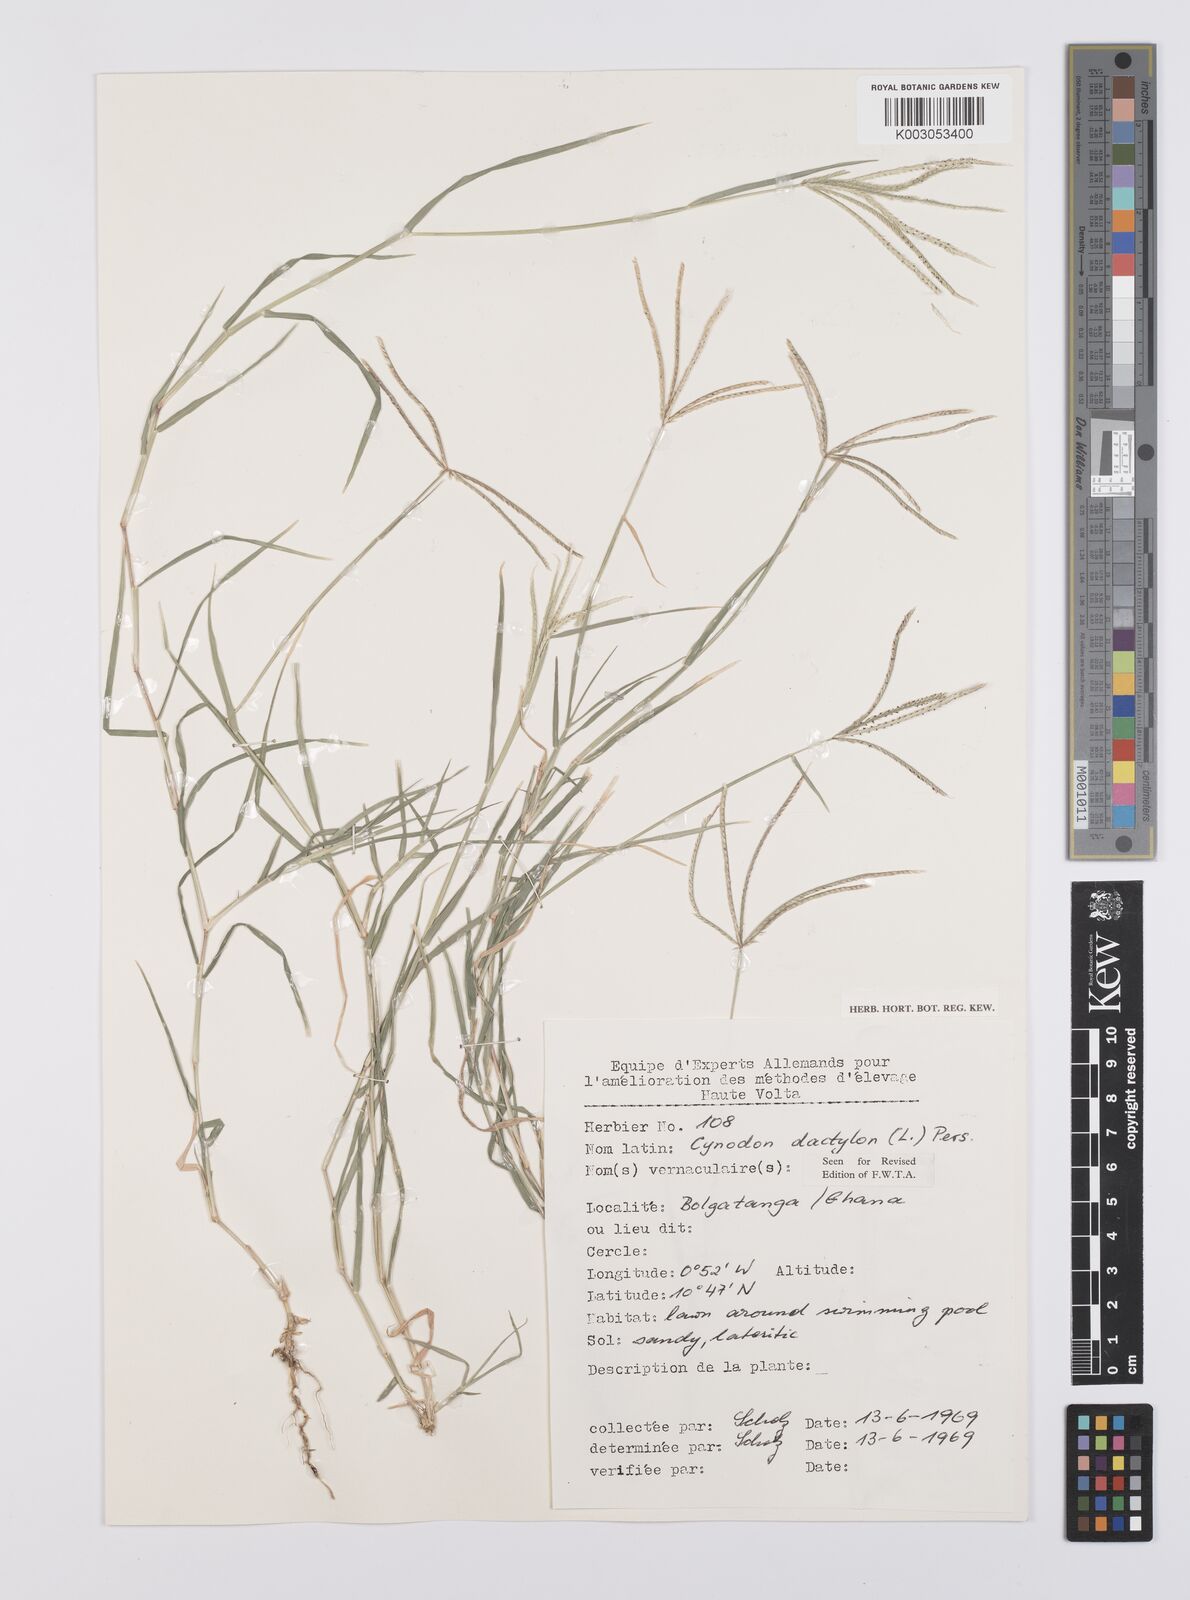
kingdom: Plantae
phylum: Tracheophyta
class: Liliopsida
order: Poales
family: Poaceae
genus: Cynodon
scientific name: Cynodon dactylon
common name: Bermuda grass
